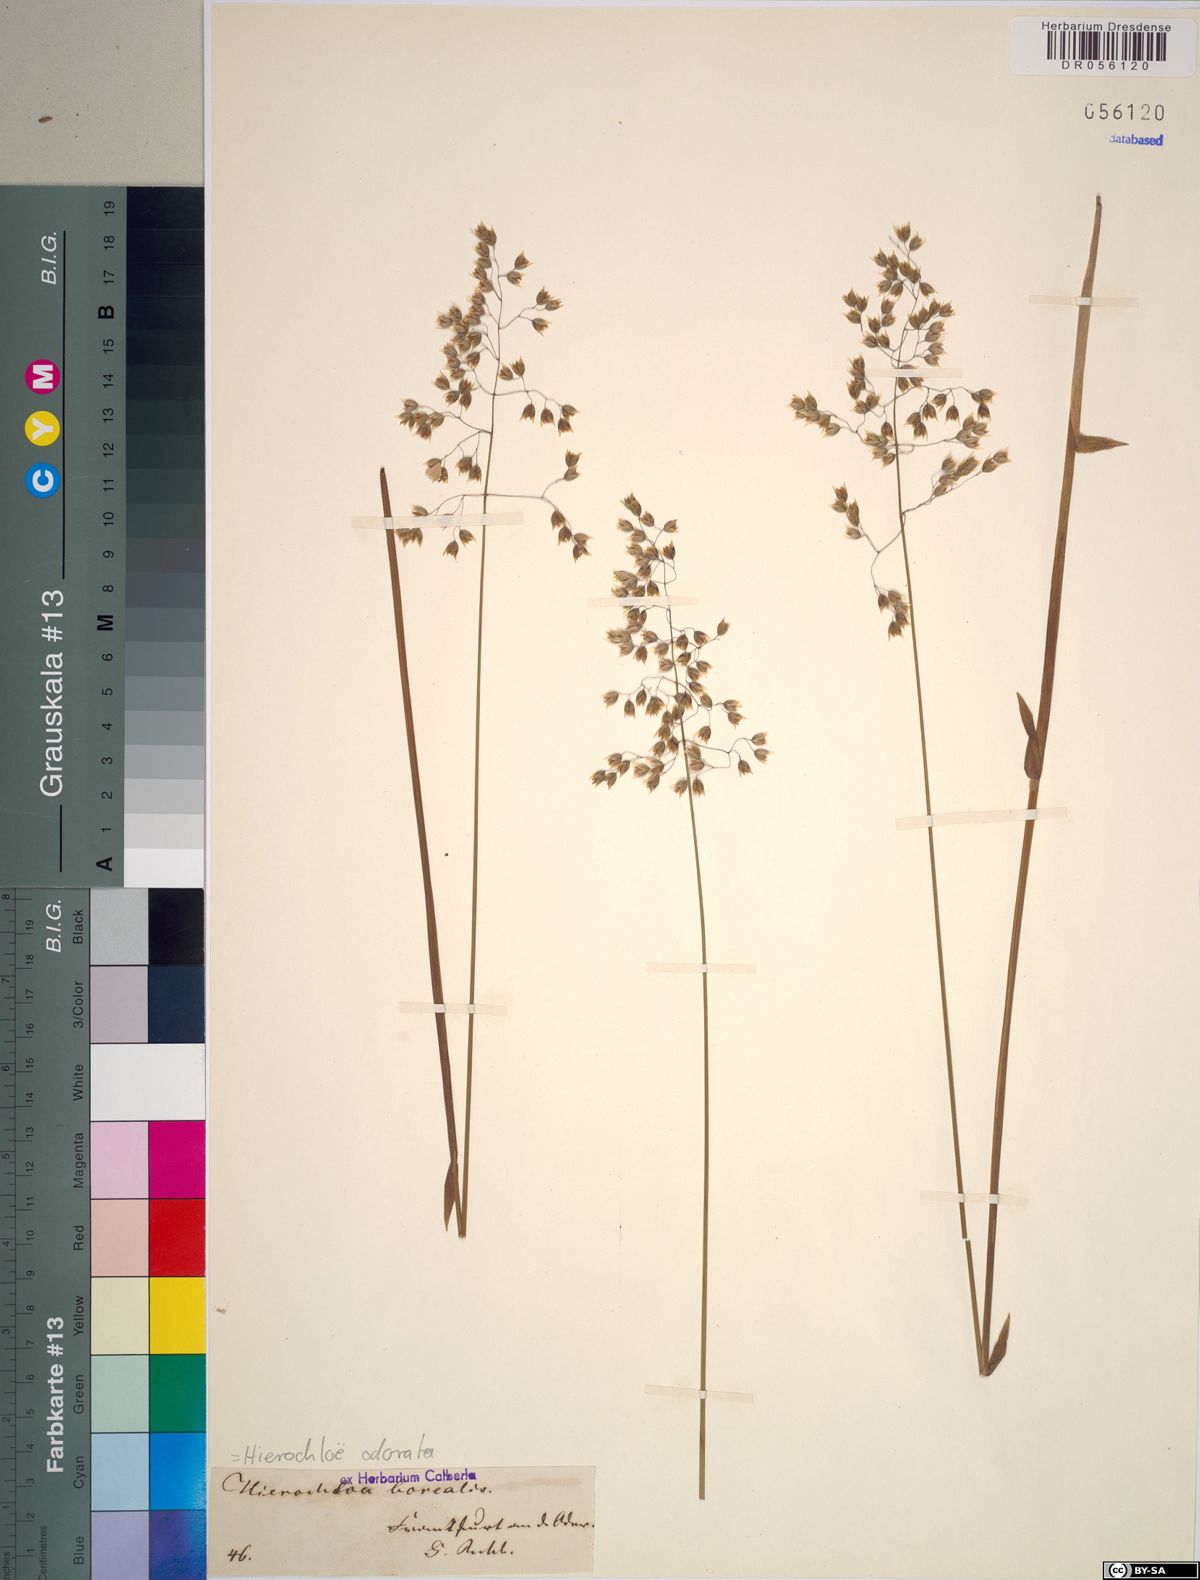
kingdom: Plantae
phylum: Tracheophyta
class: Liliopsida
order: Poales
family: Poaceae
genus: Anthoxanthum
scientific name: Anthoxanthum nitens
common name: Holy grass
